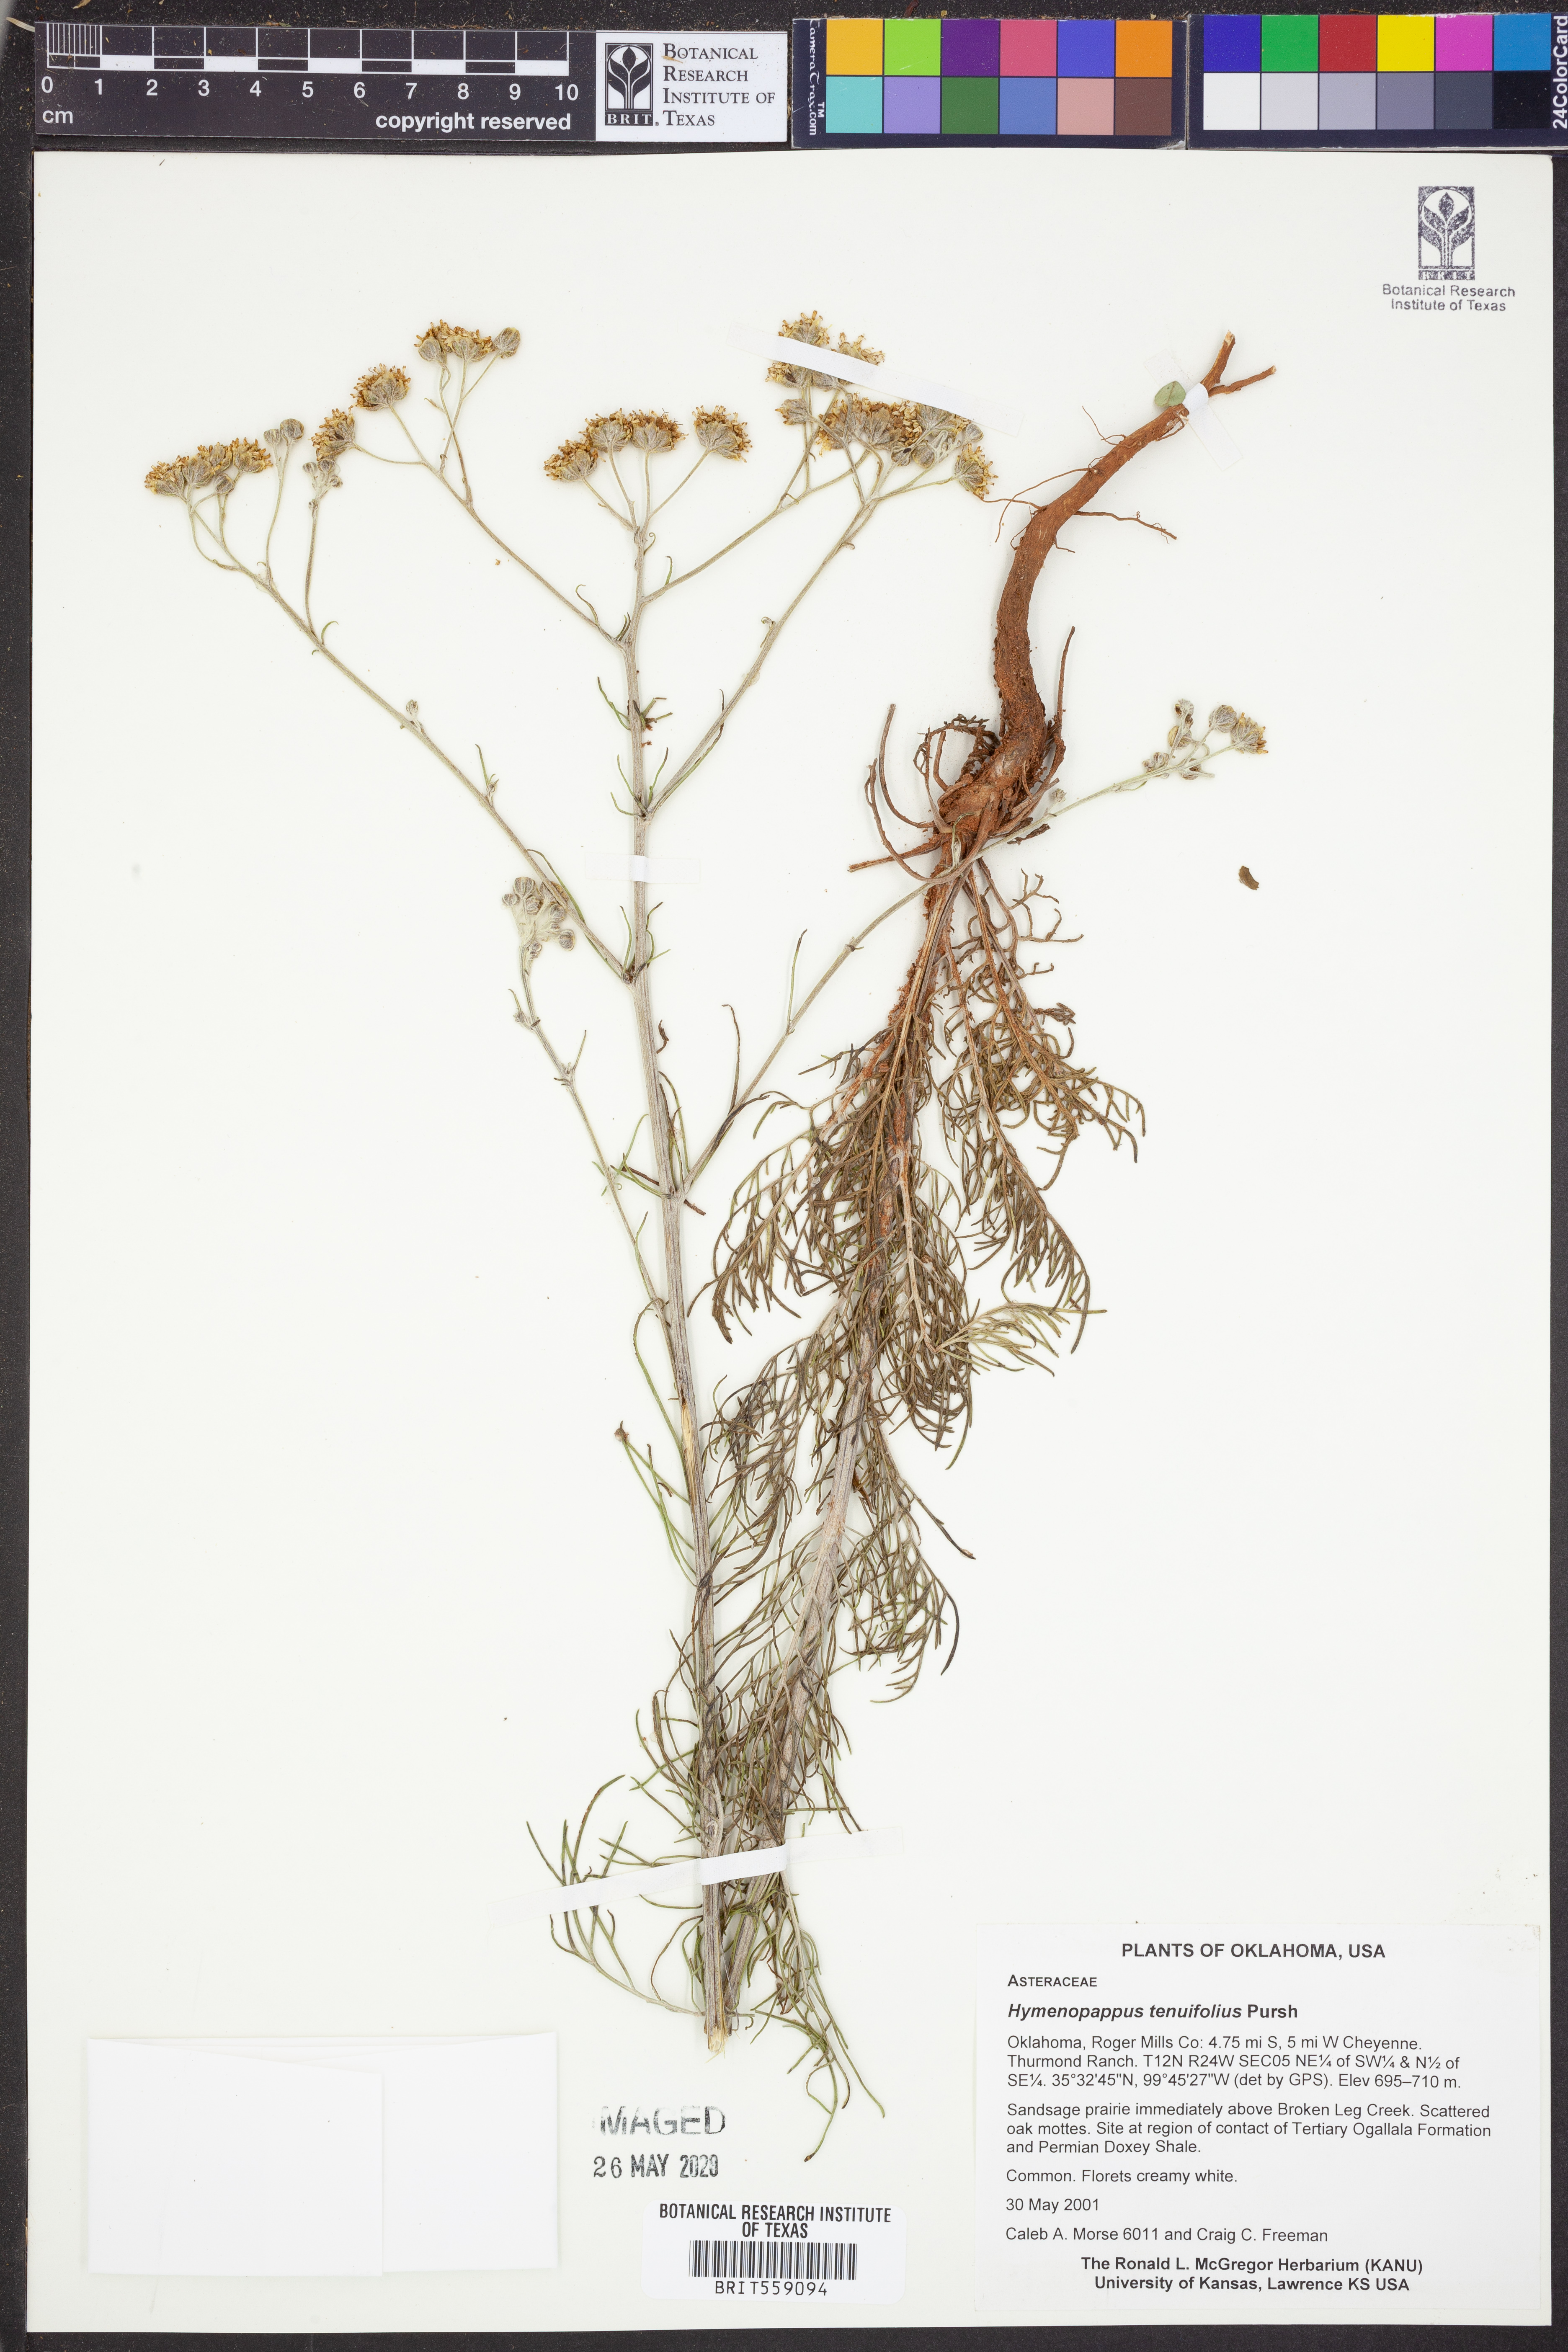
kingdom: Plantae
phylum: Tracheophyta
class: Magnoliopsida
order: Asterales
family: Asteraceae
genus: Hymenopappus
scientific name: Hymenopappus tenuifolius
